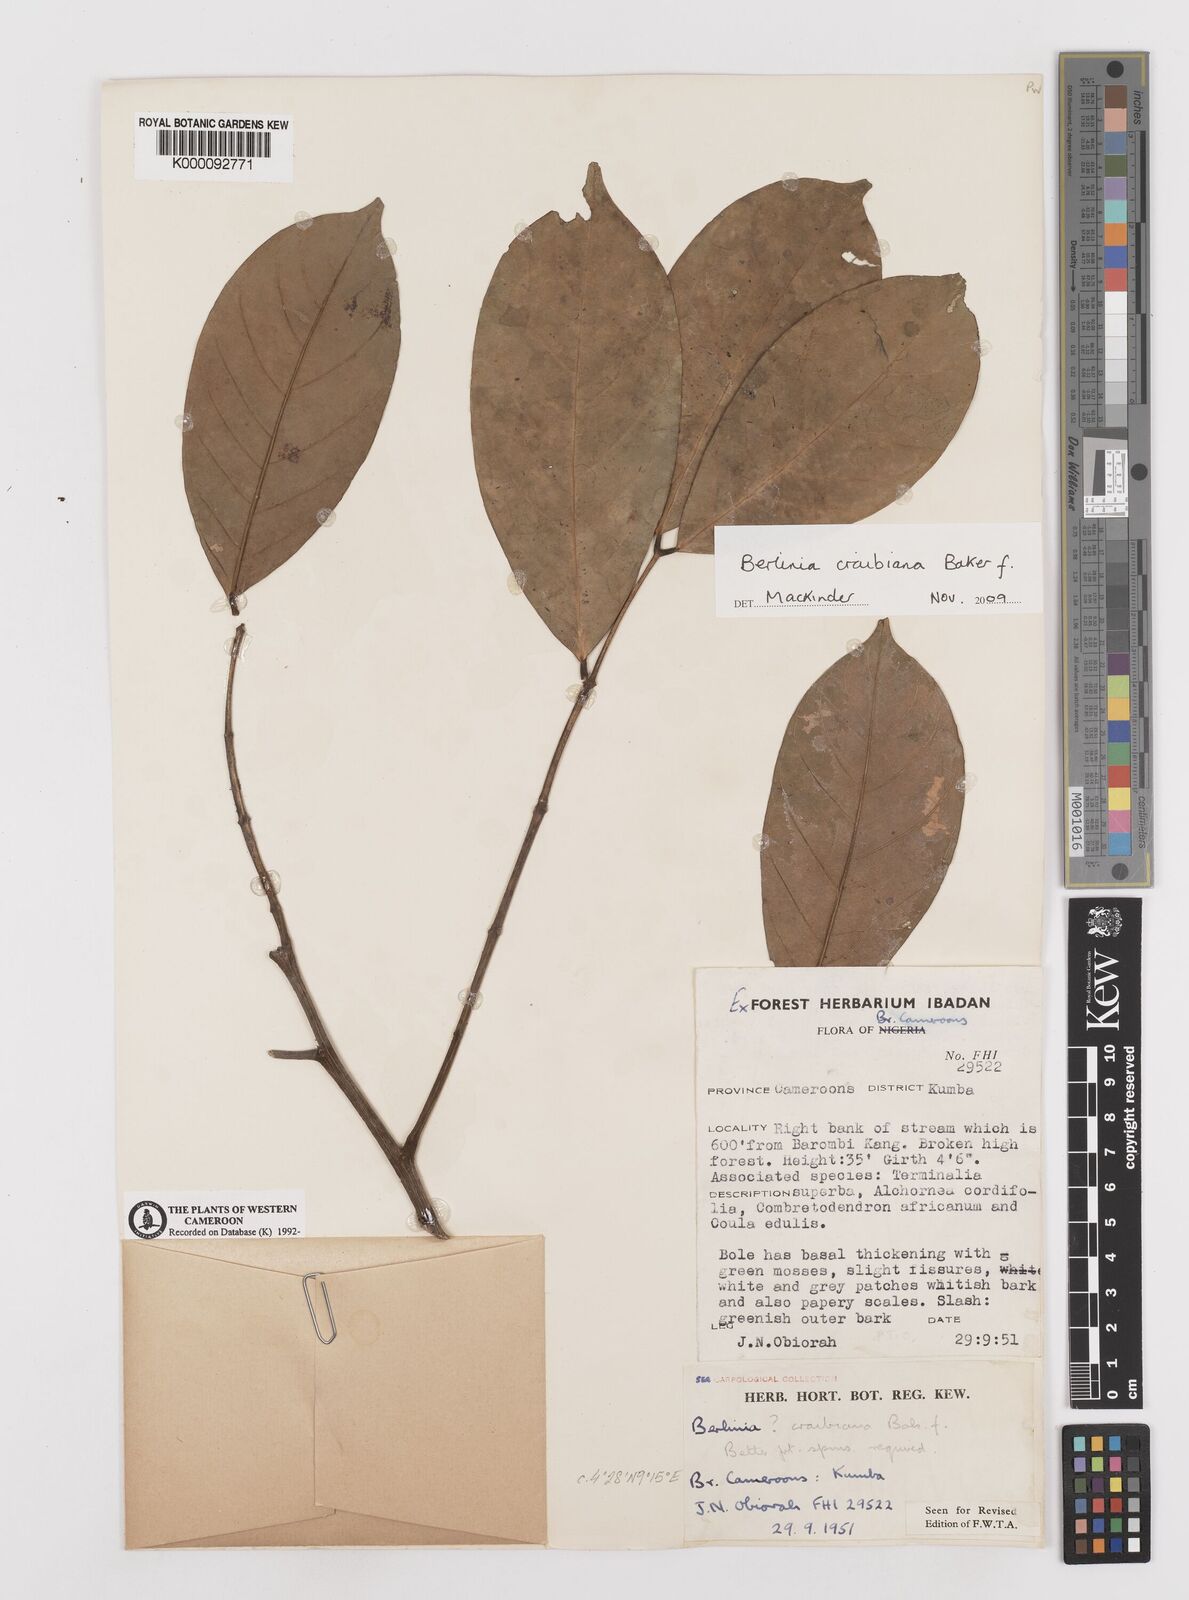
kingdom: Plantae
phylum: Tracheophyta
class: Magnoliopsida
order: Fabales
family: Fabaceae
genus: Berlinia
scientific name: Berlinia craibiana
